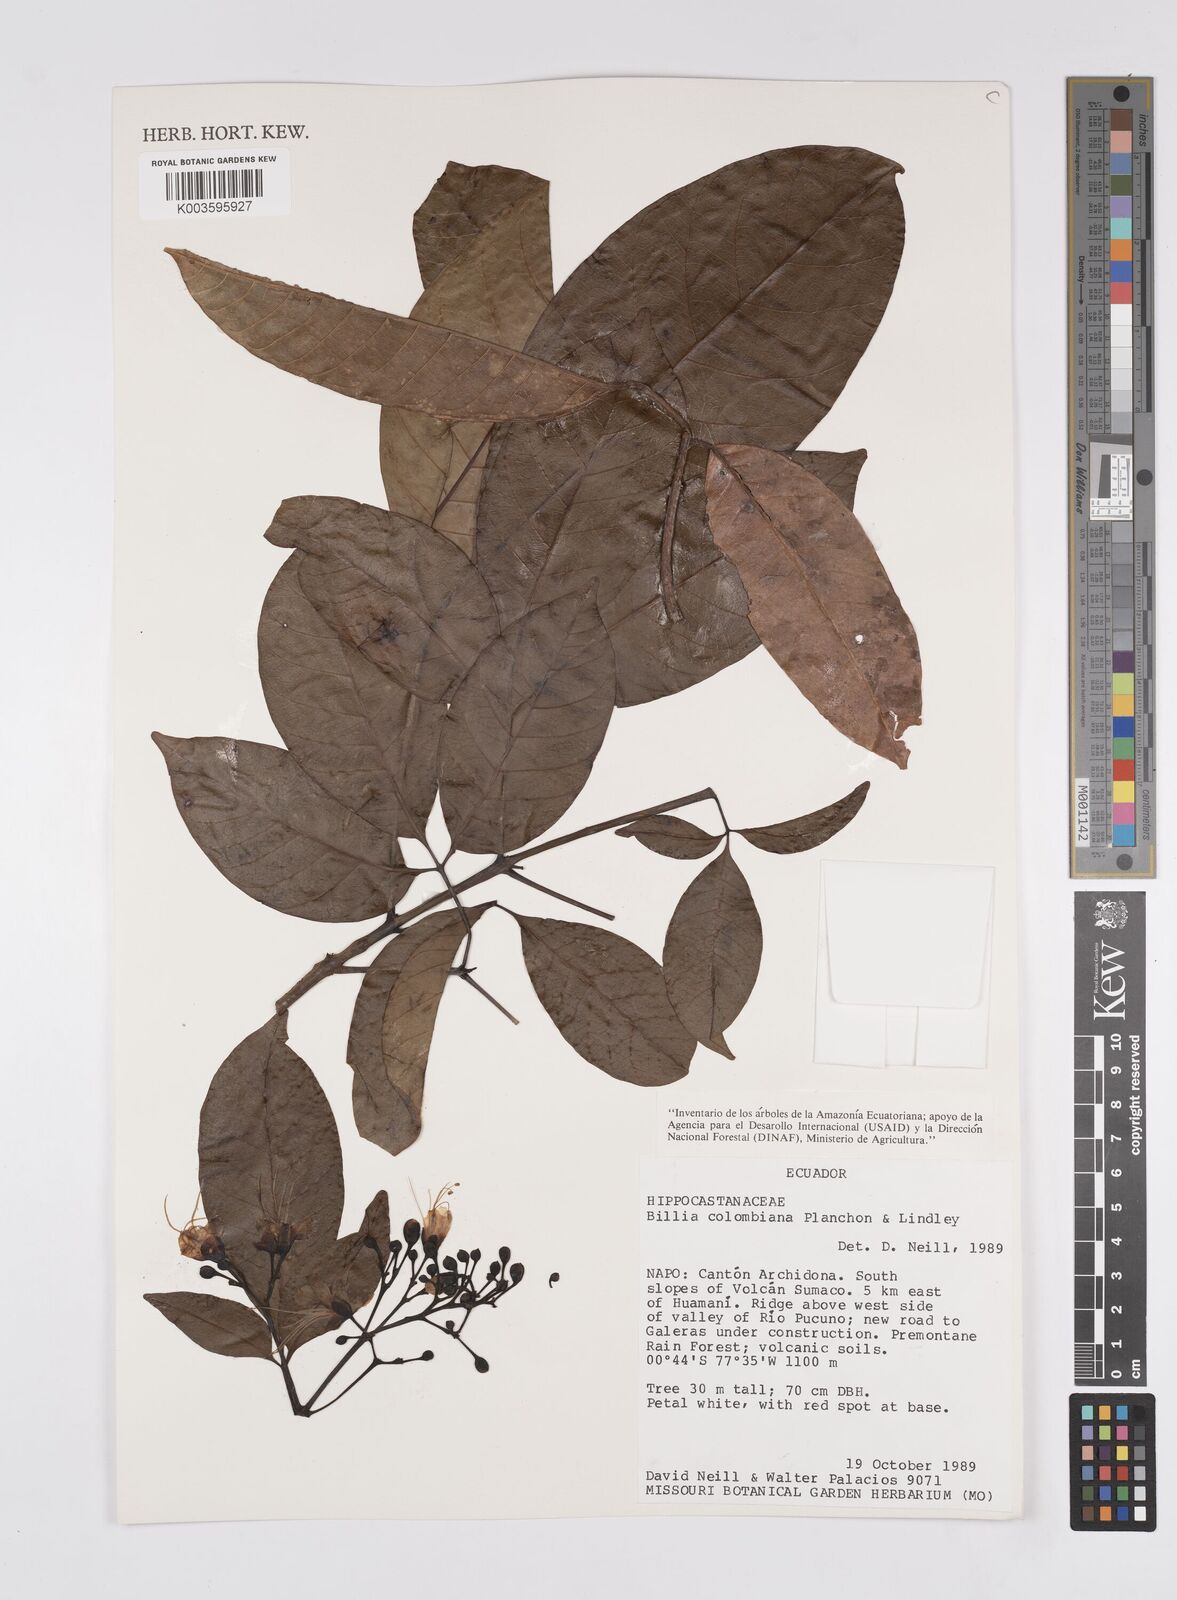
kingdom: Plantae
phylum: Tracheophyta
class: Magnoliopsida
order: Sapindales
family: Sapindaceae
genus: Billia
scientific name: Billia
